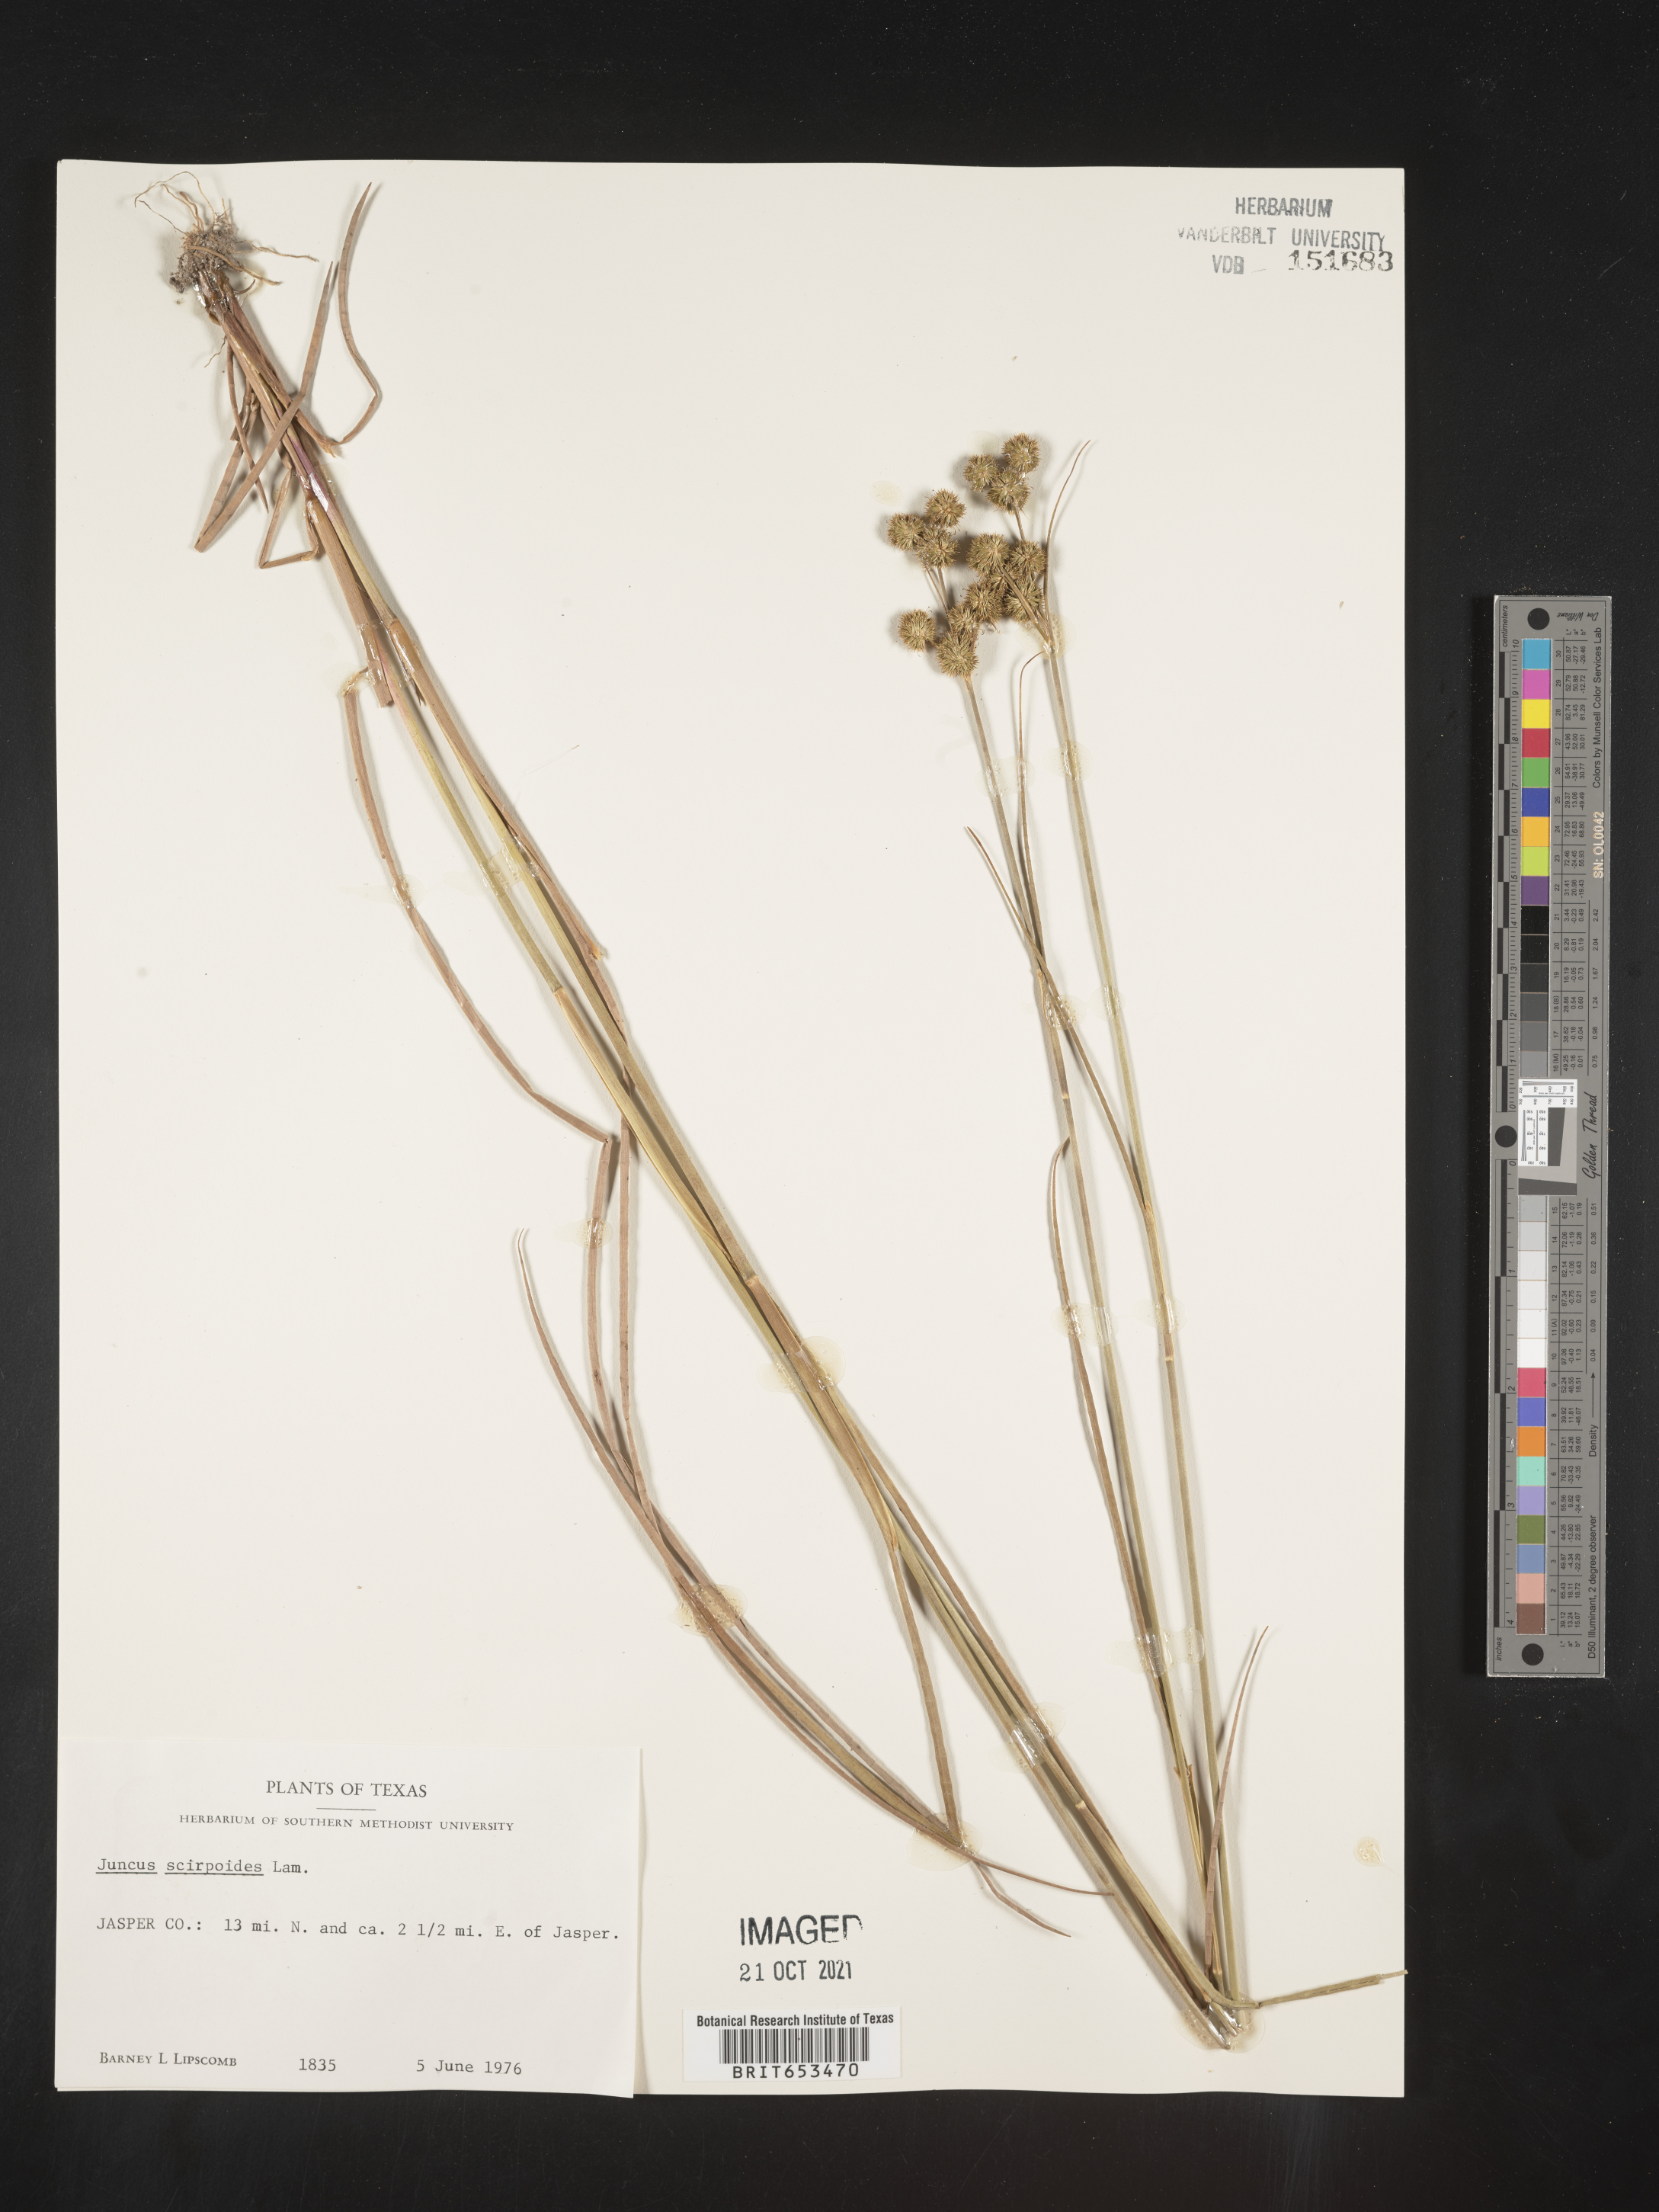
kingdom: Plantae
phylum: Tracheophyta
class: Liliopsida
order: Poales
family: Juncaceae
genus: Juncus
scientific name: Juncus scirpoides
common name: Needlepod rush
